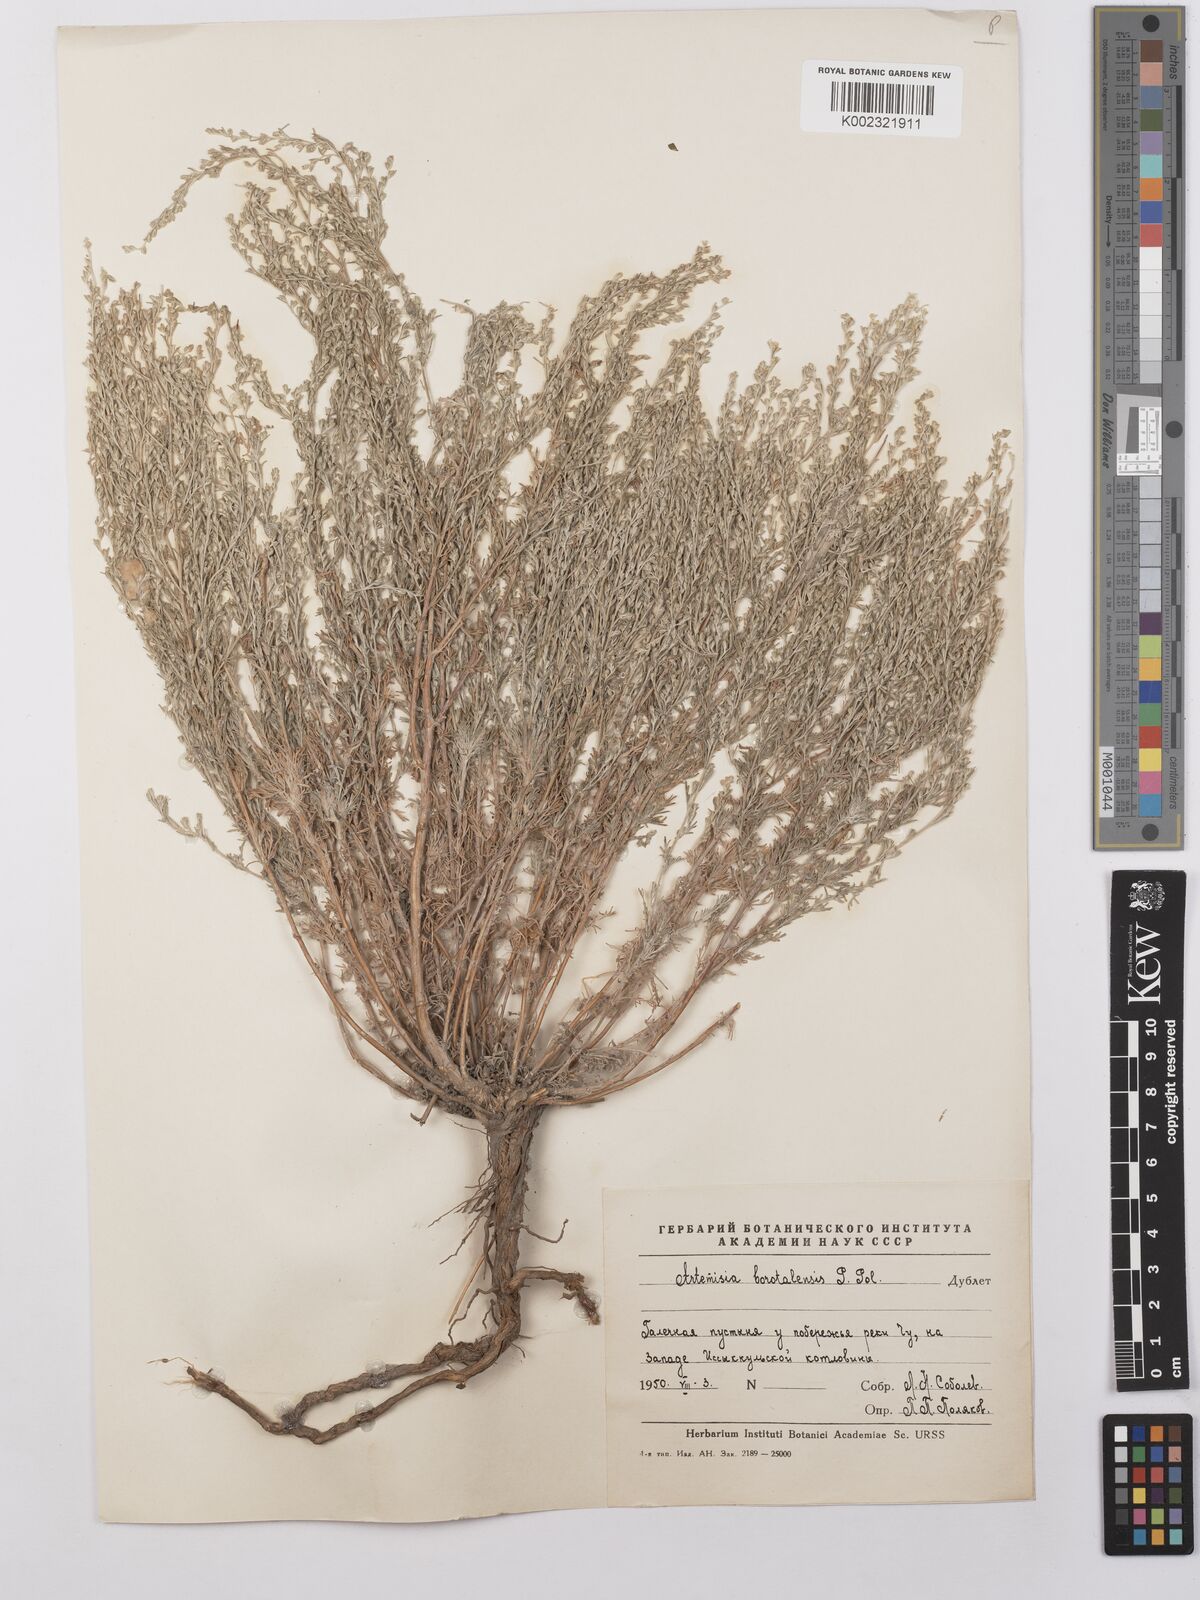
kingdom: Plantae
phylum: Tracheophyta
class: Magnoliopsida
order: Asterales
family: Asteraceae
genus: Artemisia
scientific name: Artemisia borotalensis
